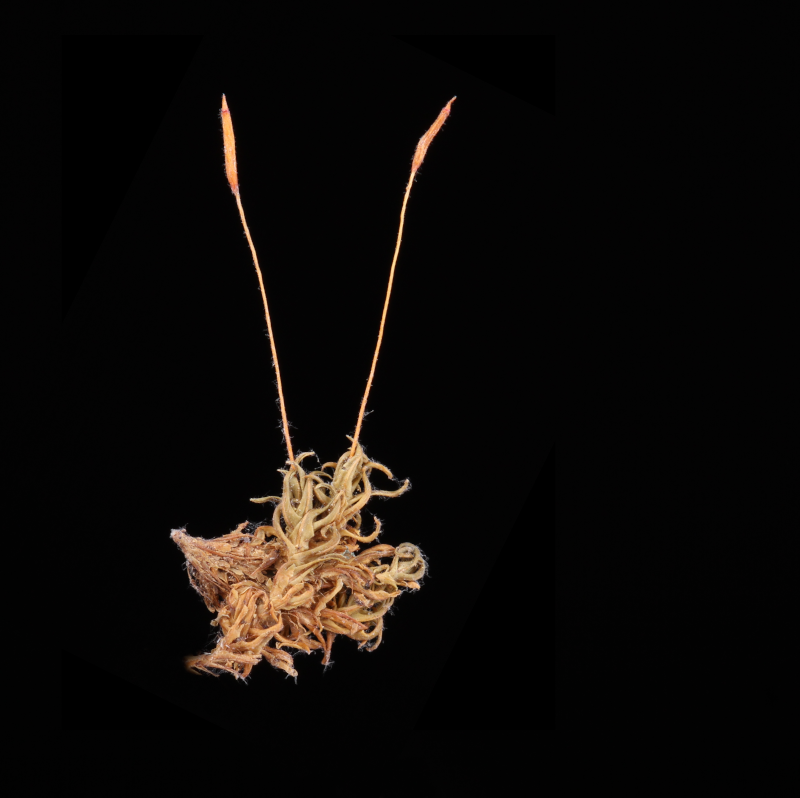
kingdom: Plantae
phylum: Bryophyta
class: Bryopsida
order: Pottiales
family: Pottiaceae
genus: Hyophila
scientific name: Hyophila involuta
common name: Hyophila moss
